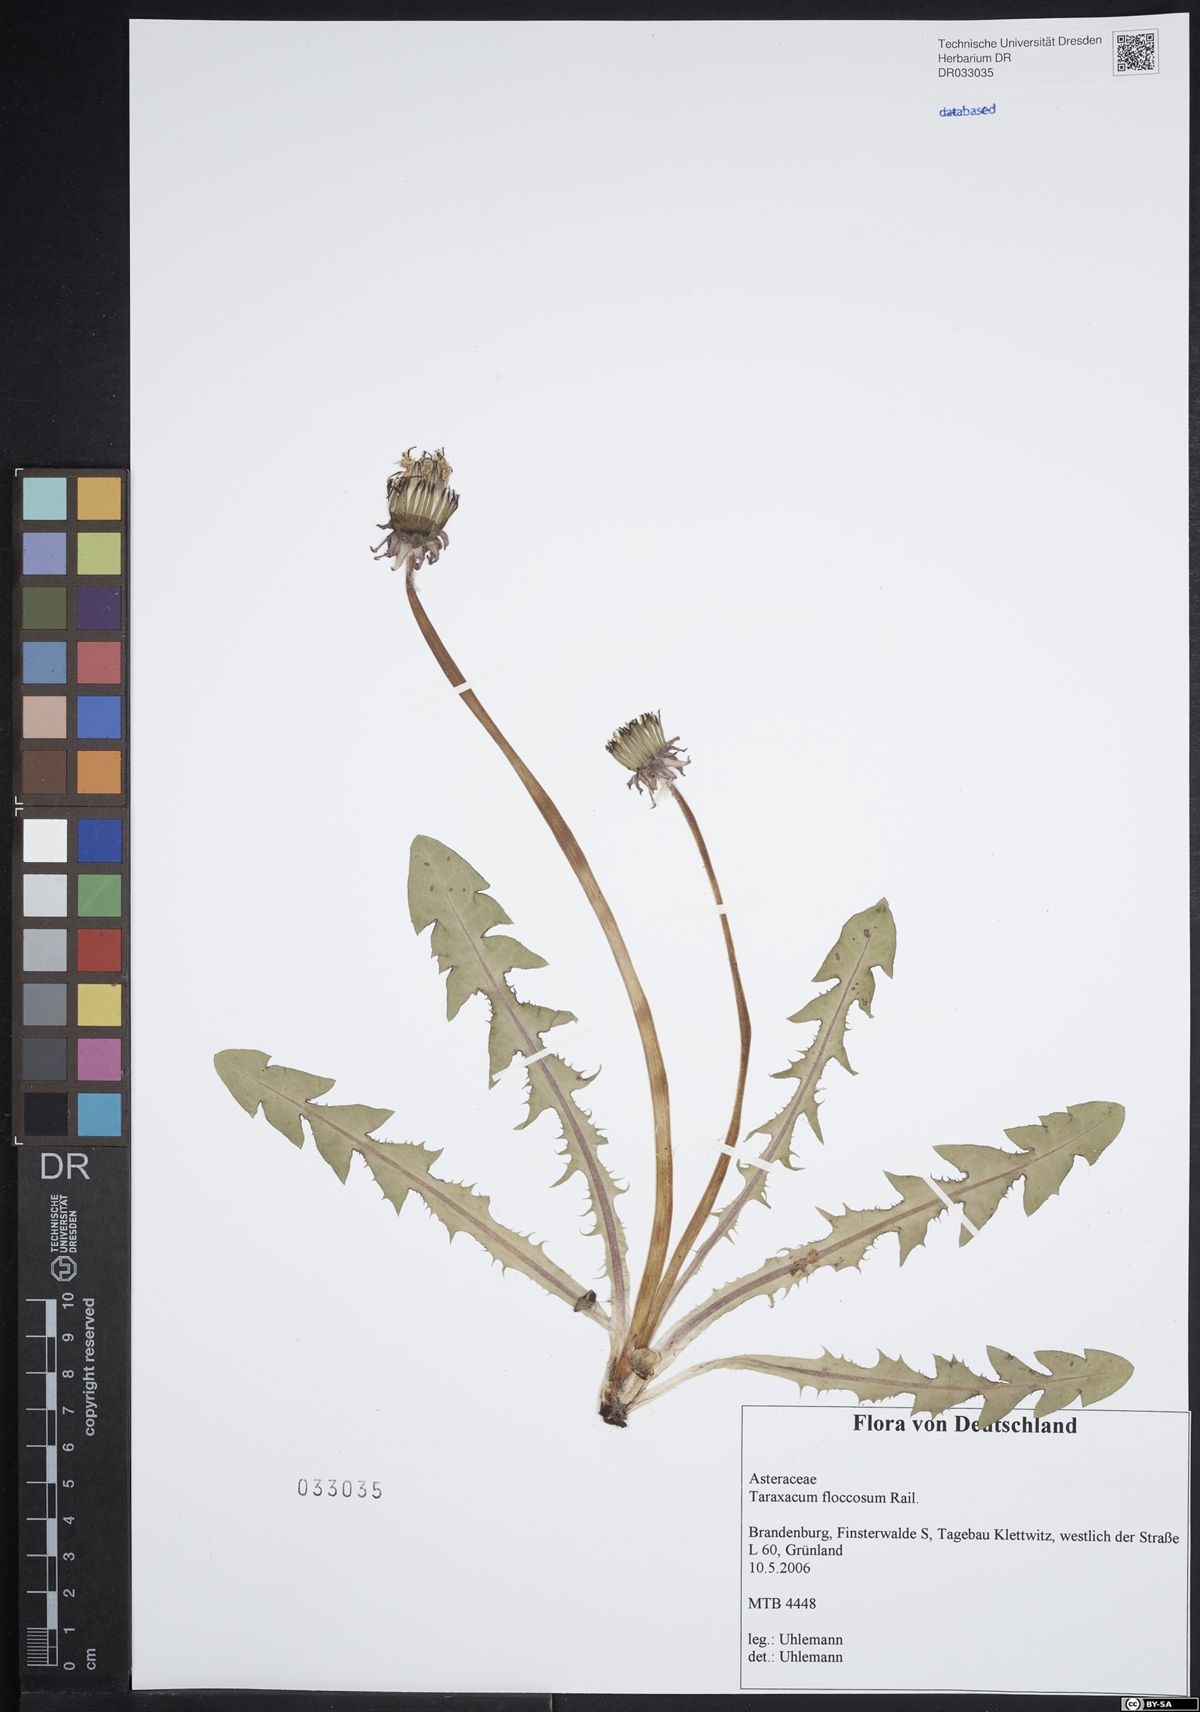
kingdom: Plantae
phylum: Tracheophyta
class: Magnoliopsida
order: Asterales
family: Asteraceae
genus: Taraxacum
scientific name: Taraxacum floccosum
